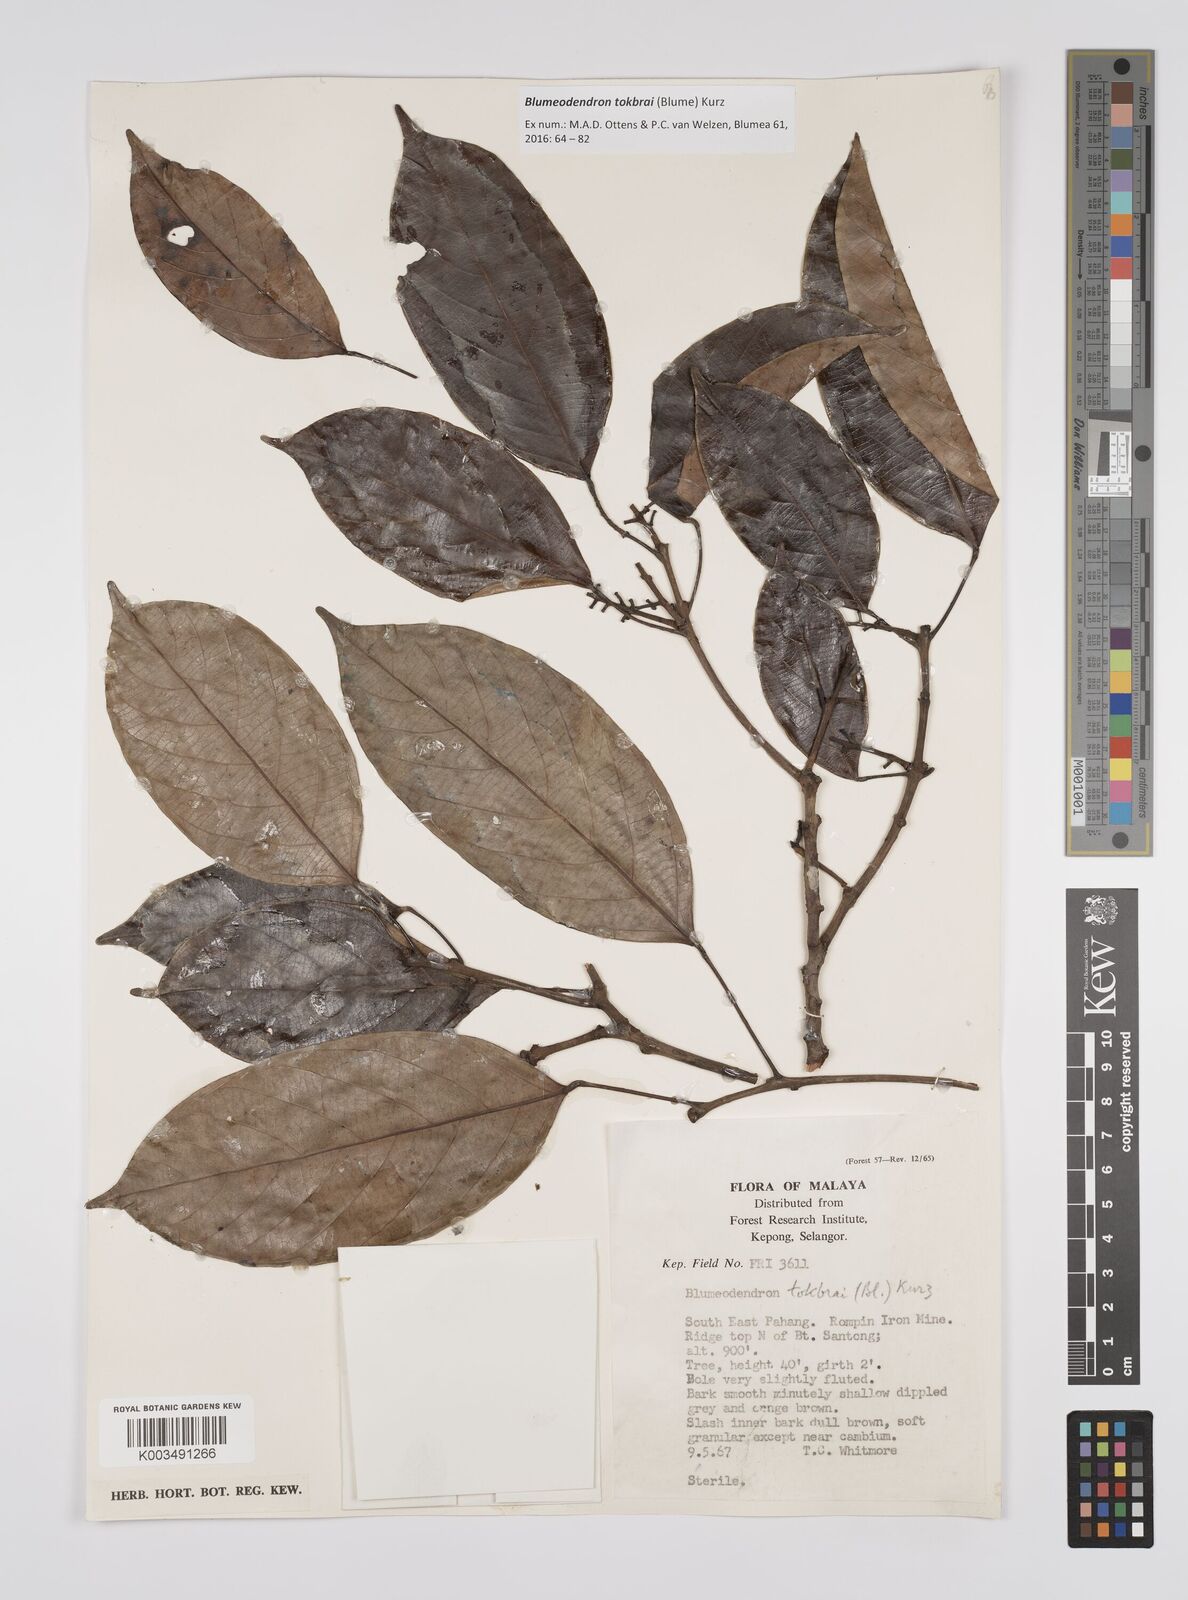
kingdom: Plantae
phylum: Tracheophyta
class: Magnoliopsida
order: Malpighiales
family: Euphorbiaceae
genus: Blumeodendron
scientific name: Blumeodendron tokbrai
